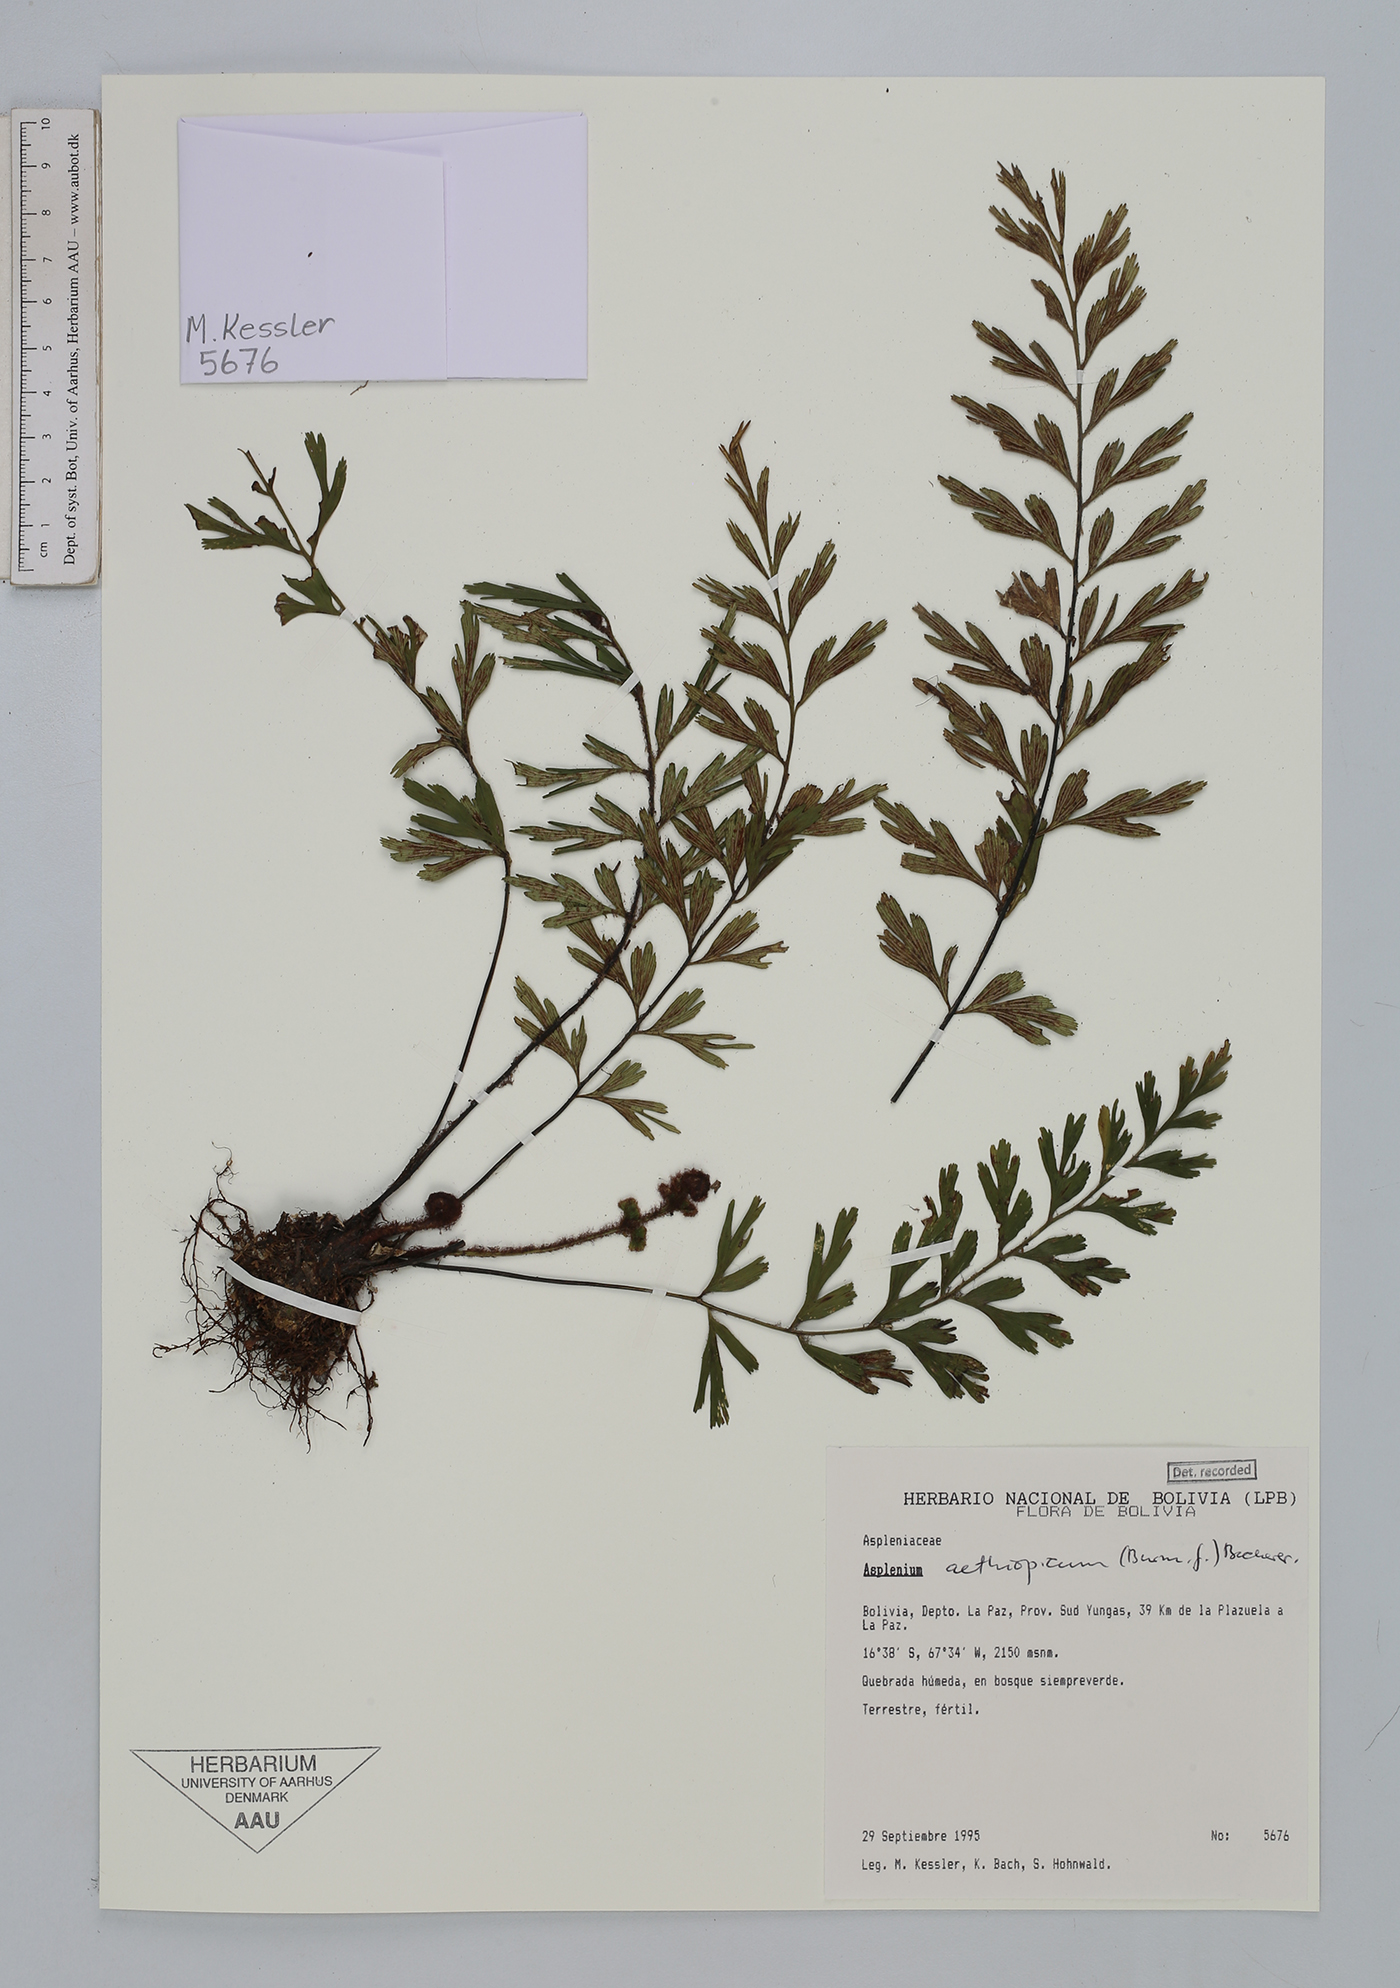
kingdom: Plantae
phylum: Tracheophyta
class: Polypodiopsida
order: Polypodiales
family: Aspleniaceae
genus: Asplenium
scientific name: Asplenium aethiopicum
